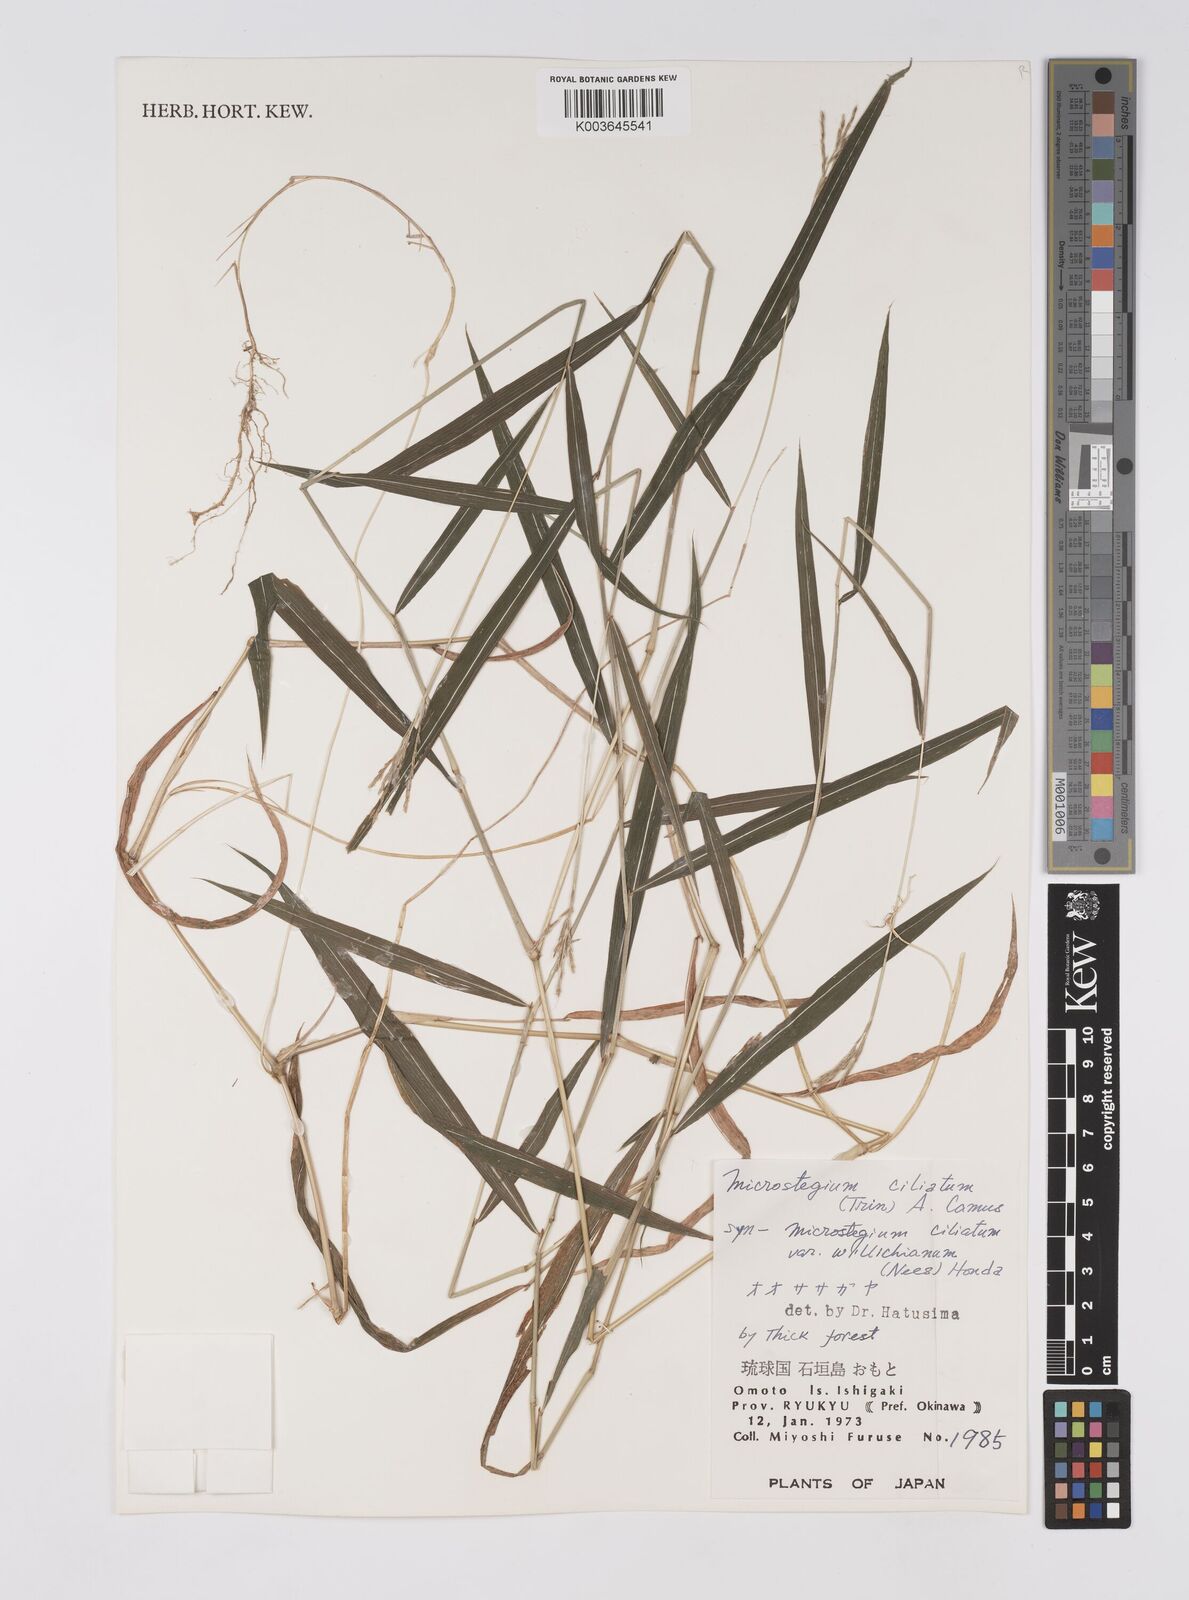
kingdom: Plantae
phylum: Tracheophyta
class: Liliopsida
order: Poales
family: Poaceae
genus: Microstegium
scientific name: Microstegium fasciculatum
